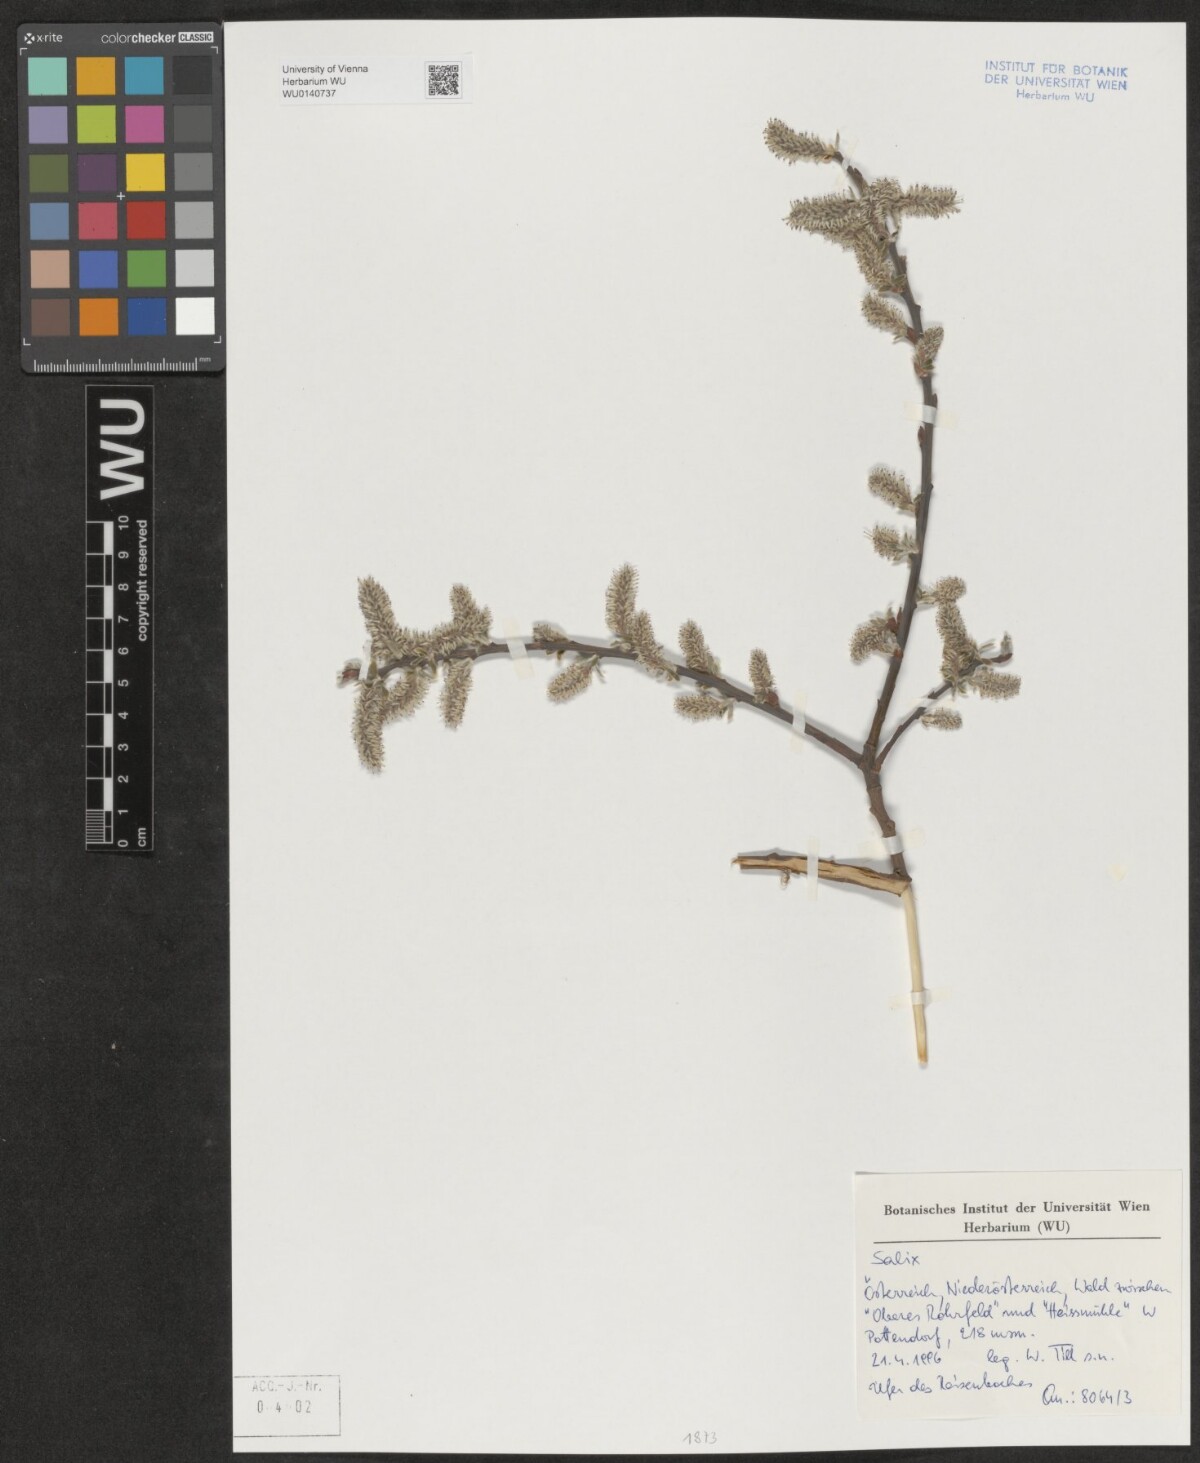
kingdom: Plantae
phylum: Tracheophyta
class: Magnoliopsida
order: Malpighiales
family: Salicaceae
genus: Salix
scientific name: Salix
